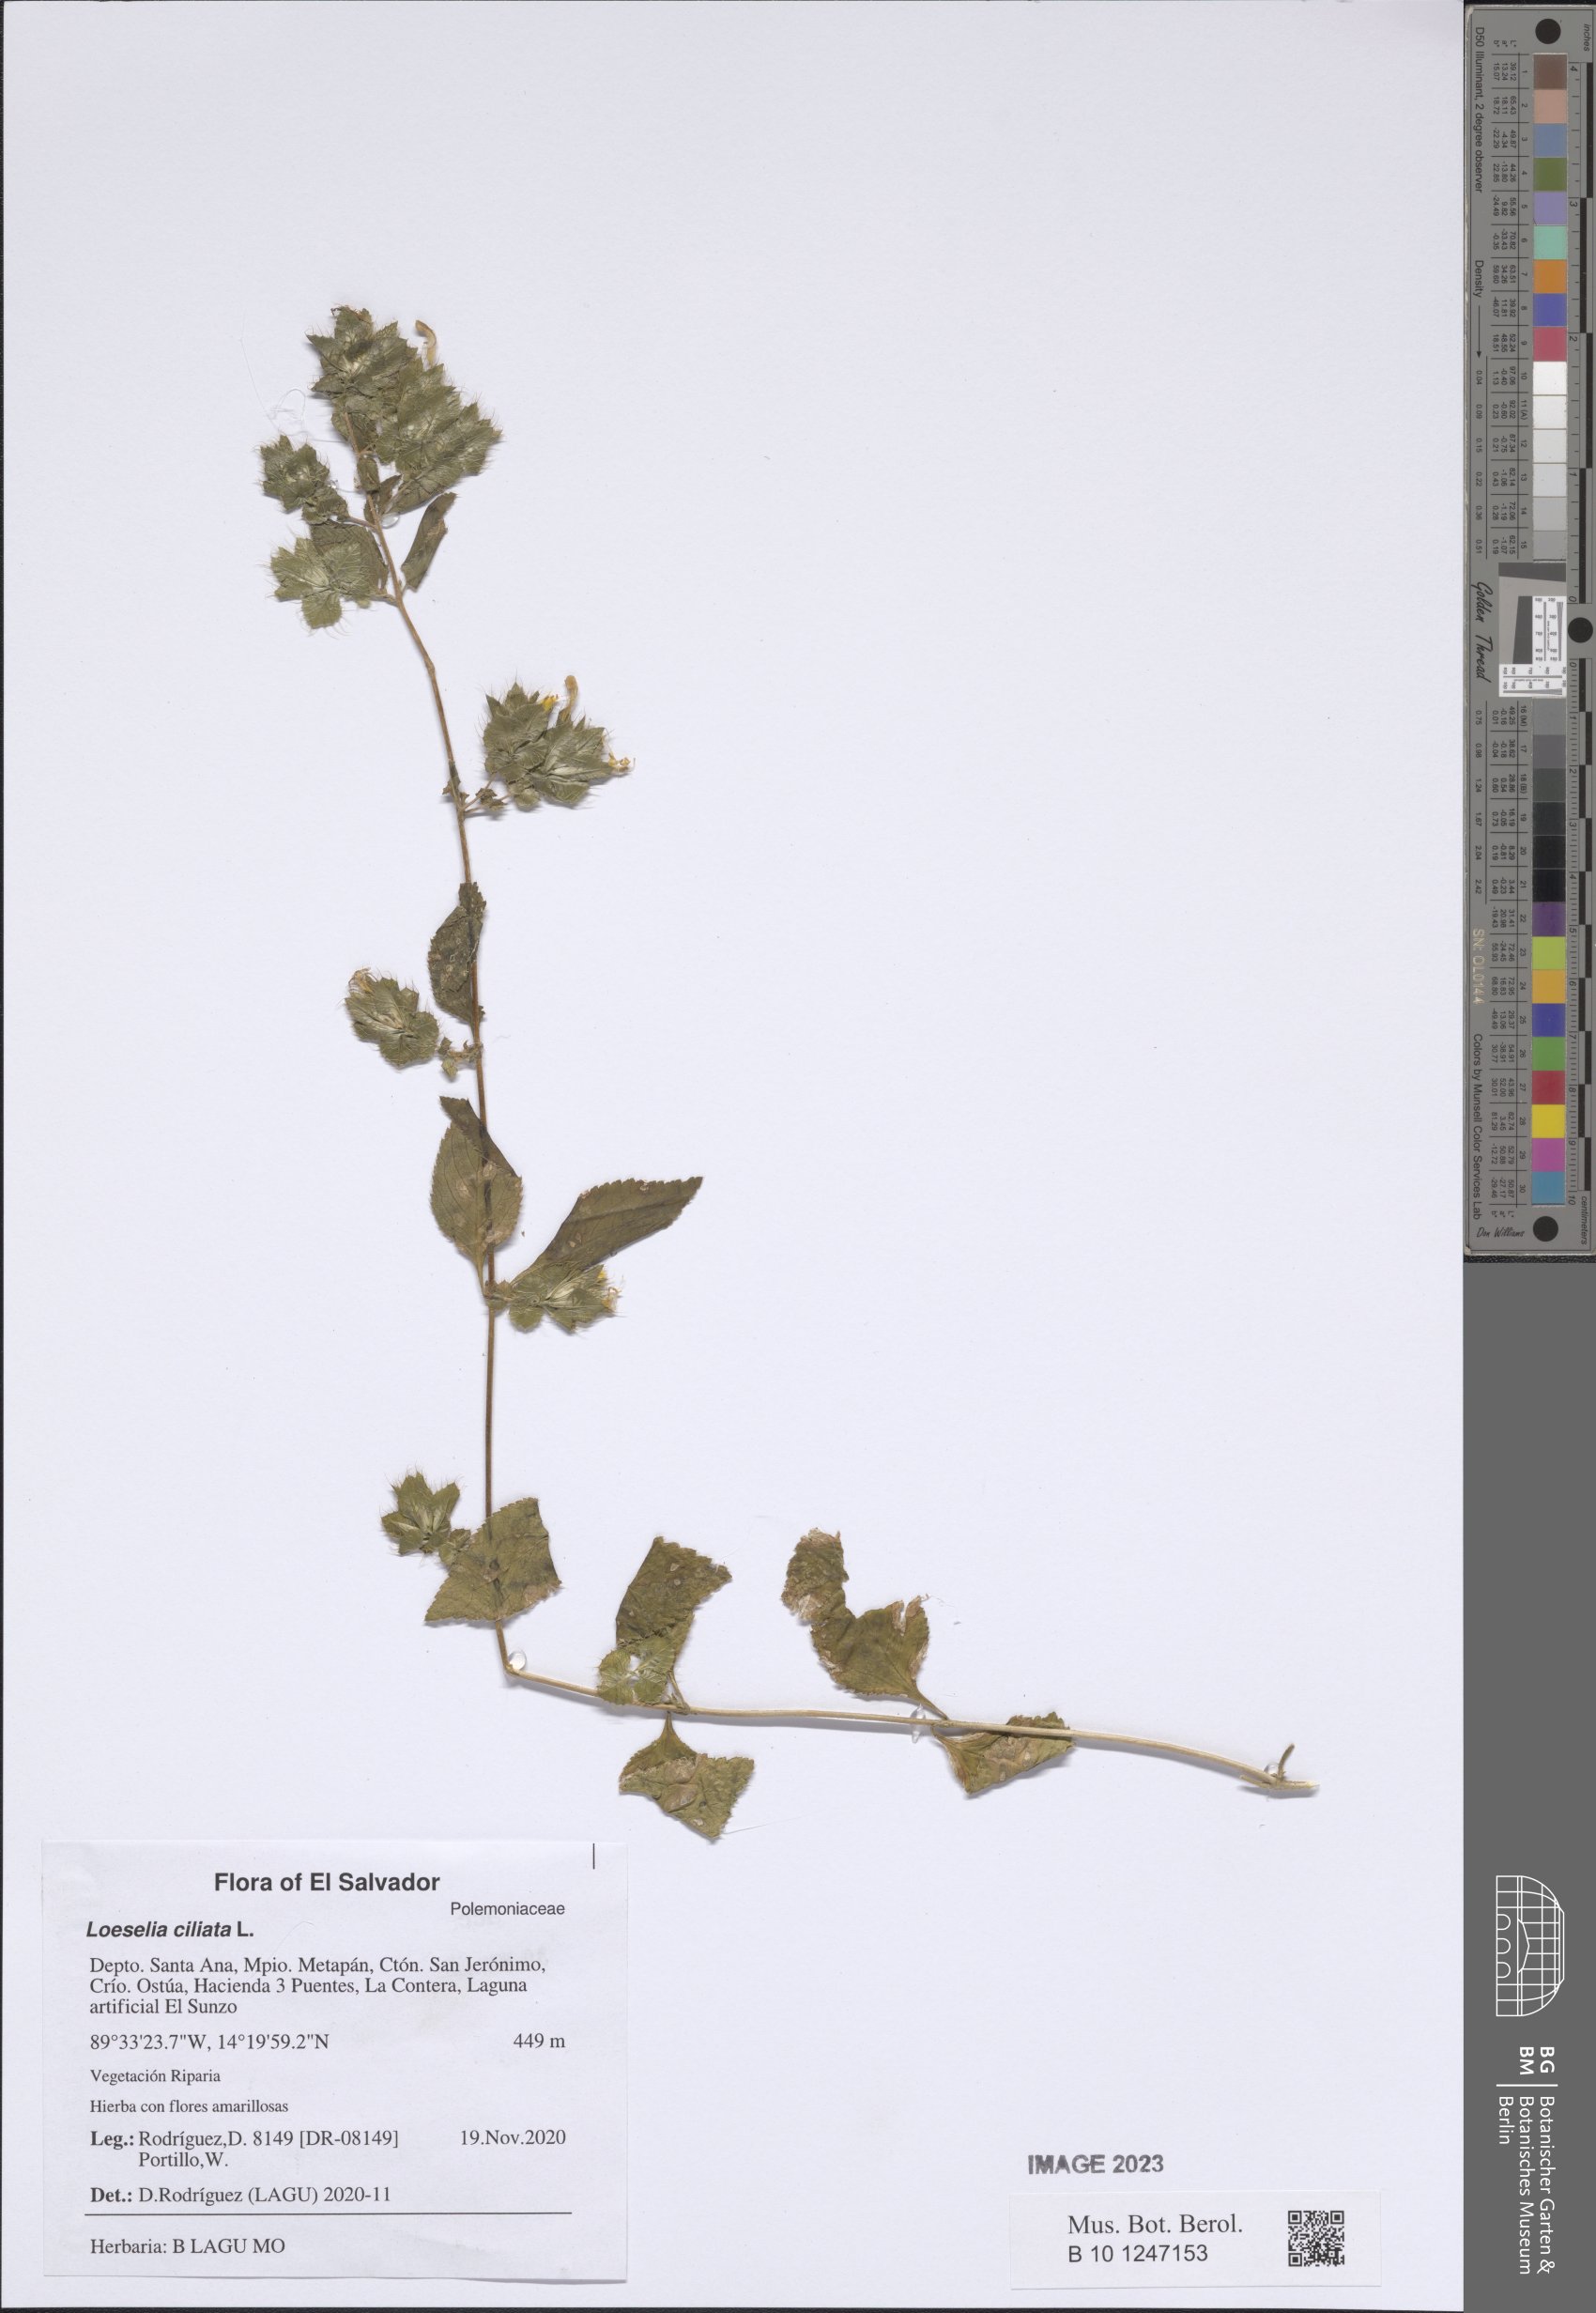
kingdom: Plantae
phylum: Tracheophyta
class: Magnoliopsida
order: Ericales
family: Polemoniaceae
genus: Loeselia
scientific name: Loeselia ciliata
